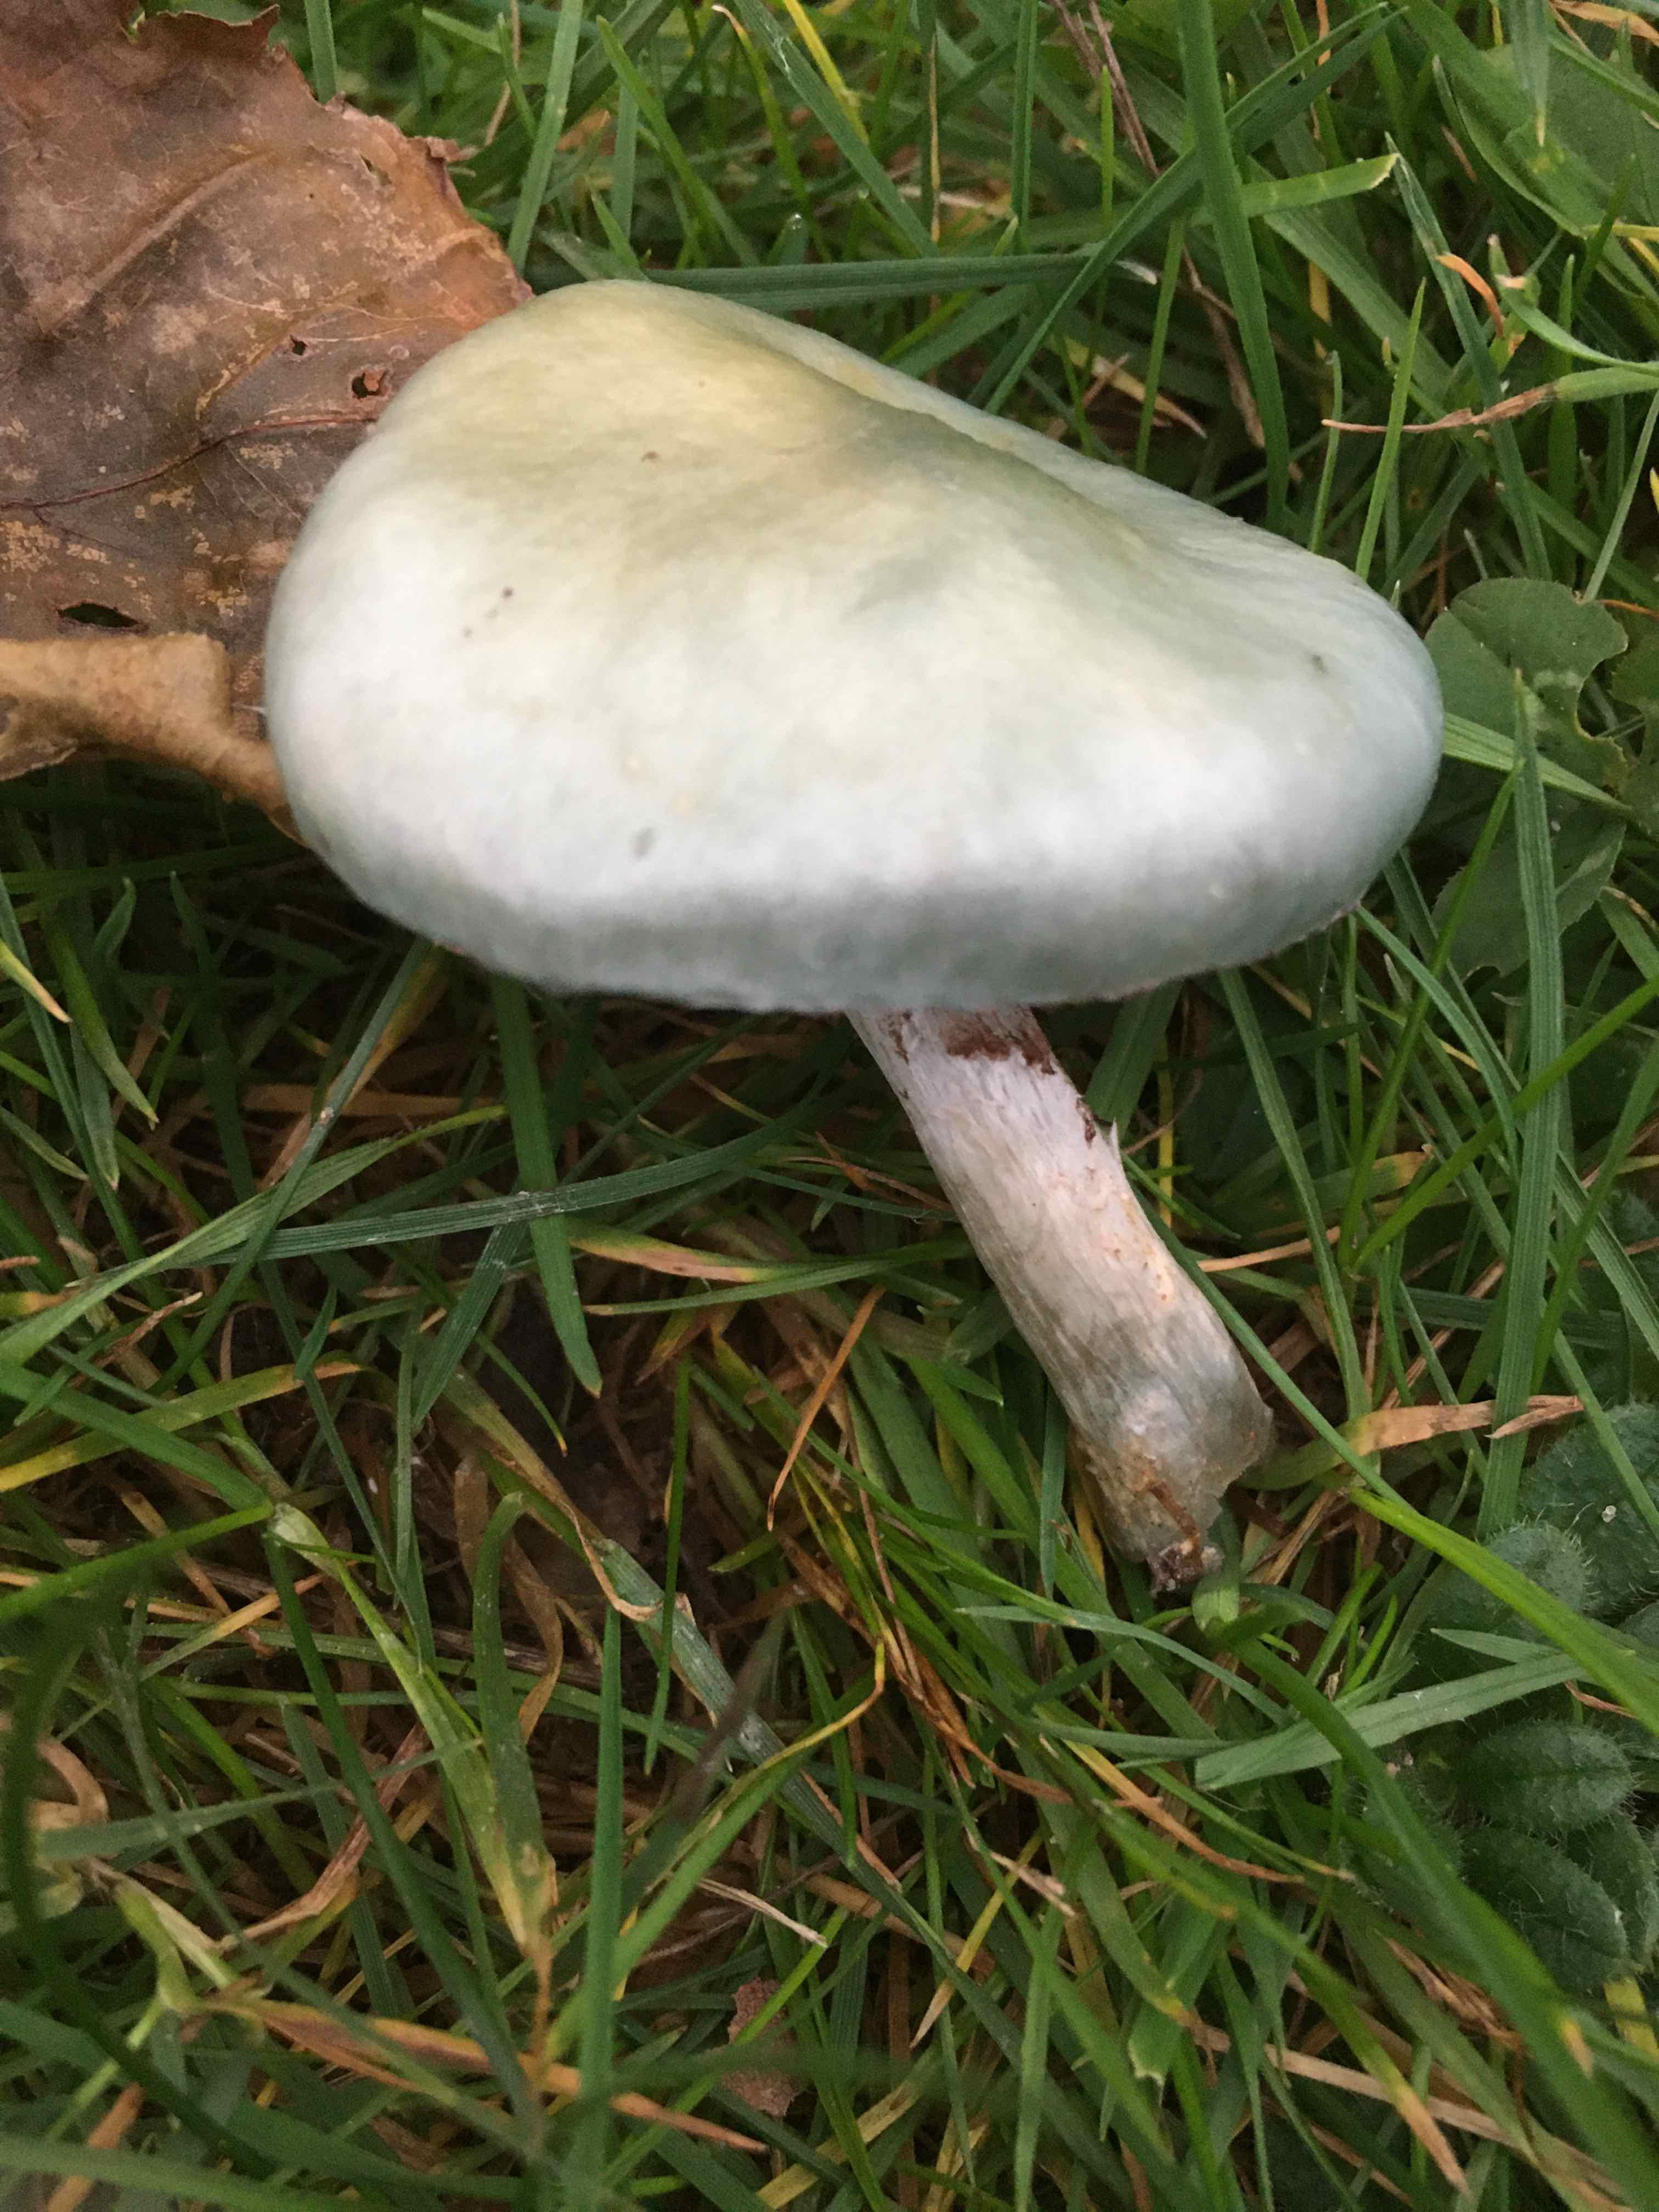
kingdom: Fungi
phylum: Basidiomycota
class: Agaricomycetes
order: Agaricales
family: Strophariaceae
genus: Stropharia
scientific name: Stropharia cyanea
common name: blågrøn bredblad
